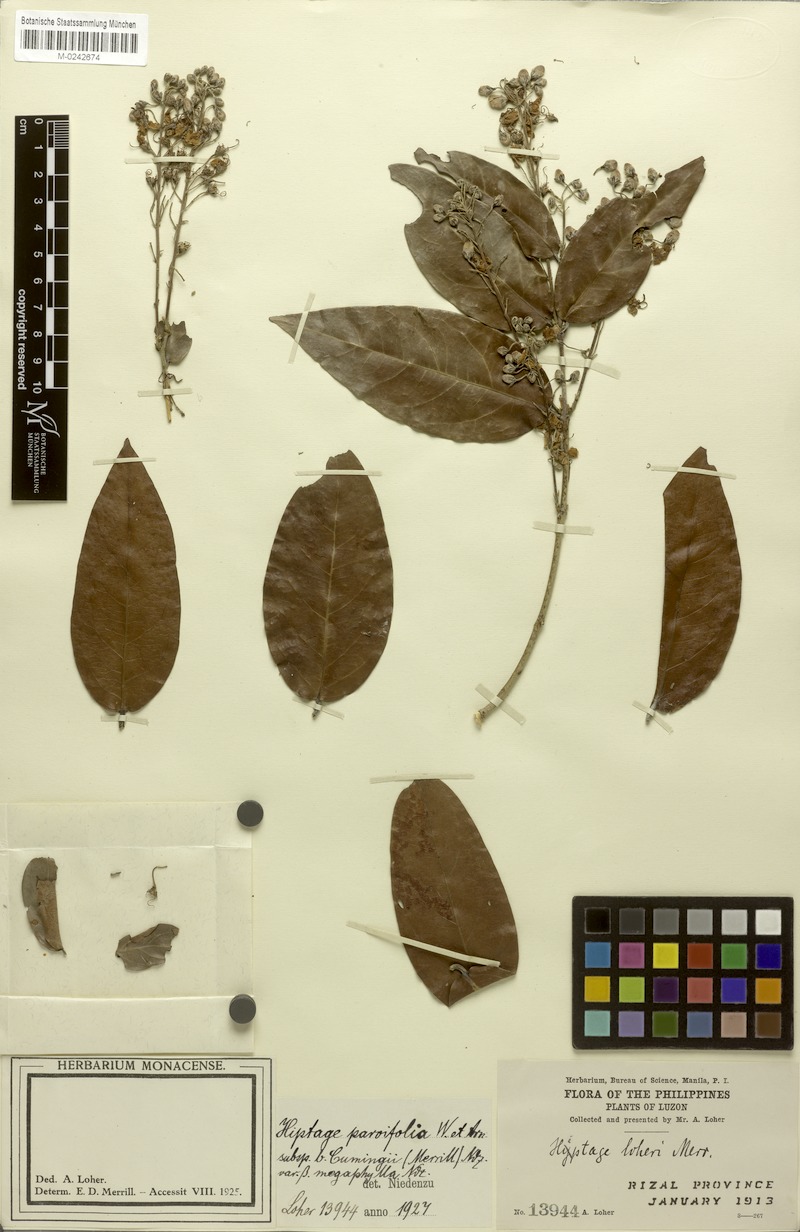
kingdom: Plantae
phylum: Tracheophyta
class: Magnoliopsida
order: Malpighiales
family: Malpighiaceae
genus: Hiptage
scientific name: Hiptage benghalensis
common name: Hiptage
